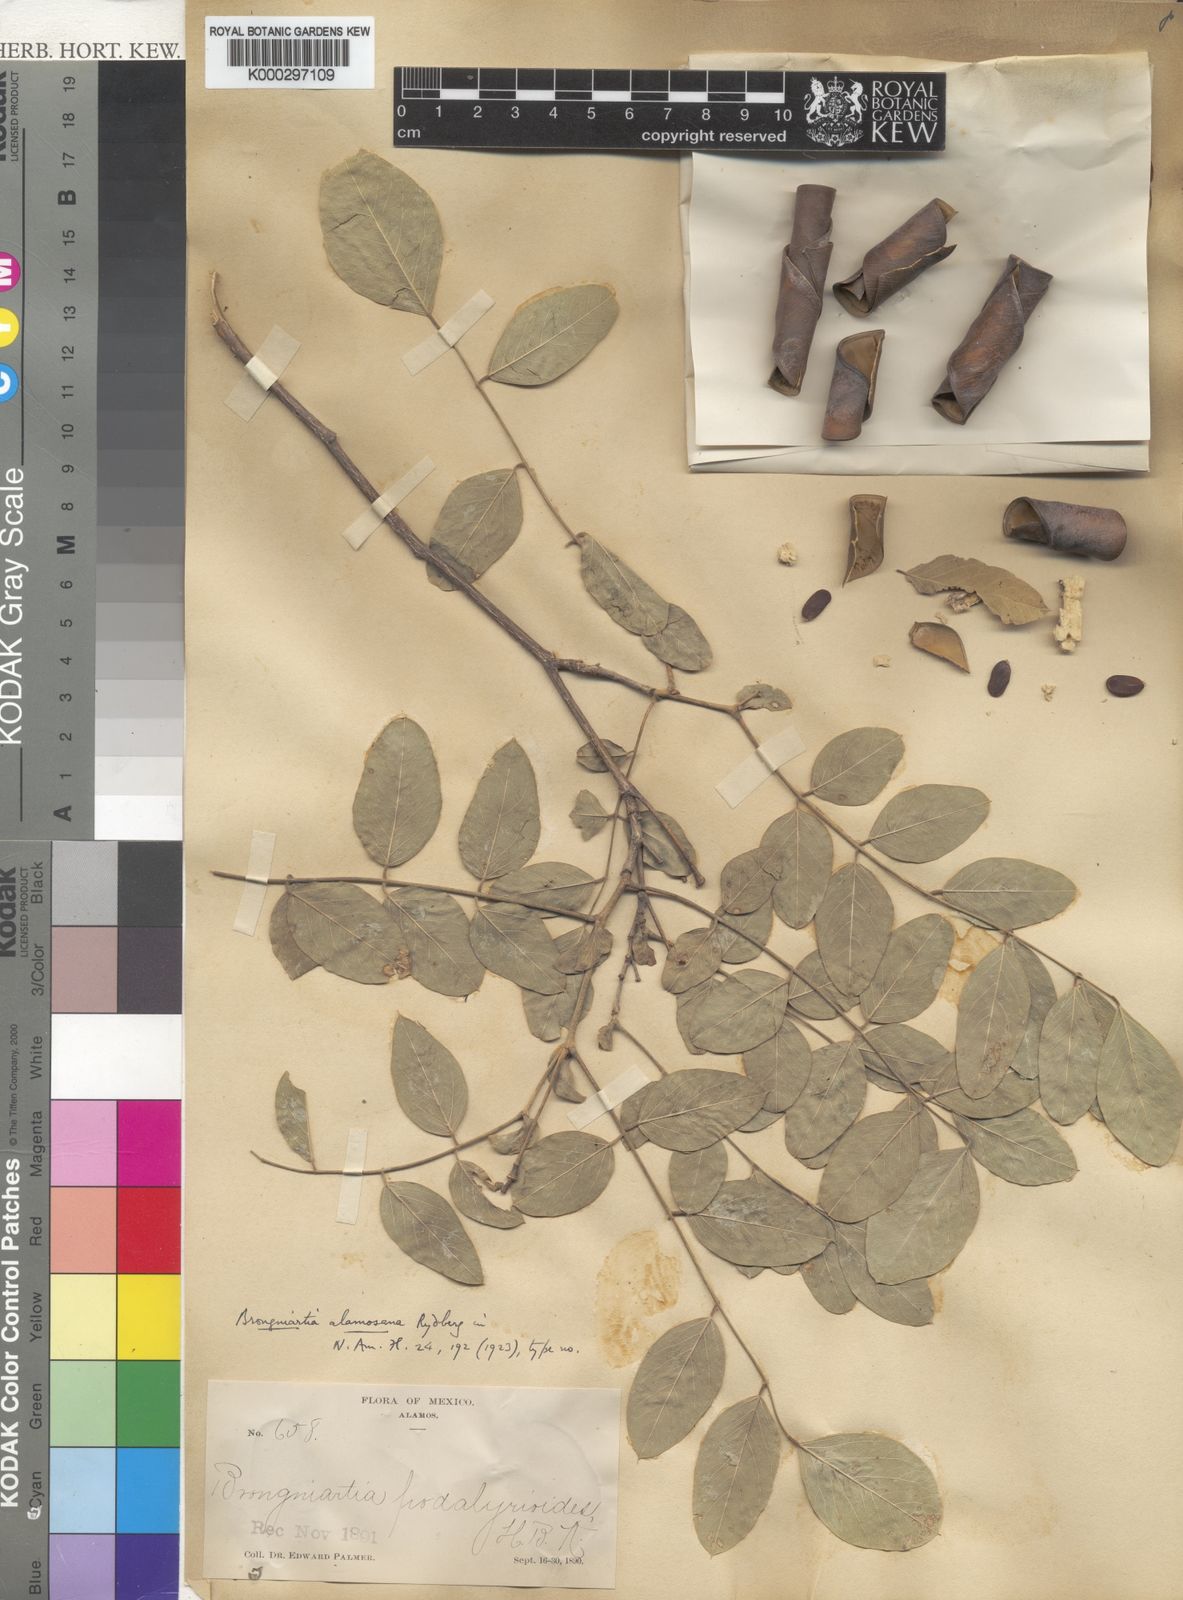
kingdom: Plantae
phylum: Tracheophyta
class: Magnoliopsida
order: Fabales
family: Fabaceae
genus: Brongniartia
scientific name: Brongniartia alamosana
